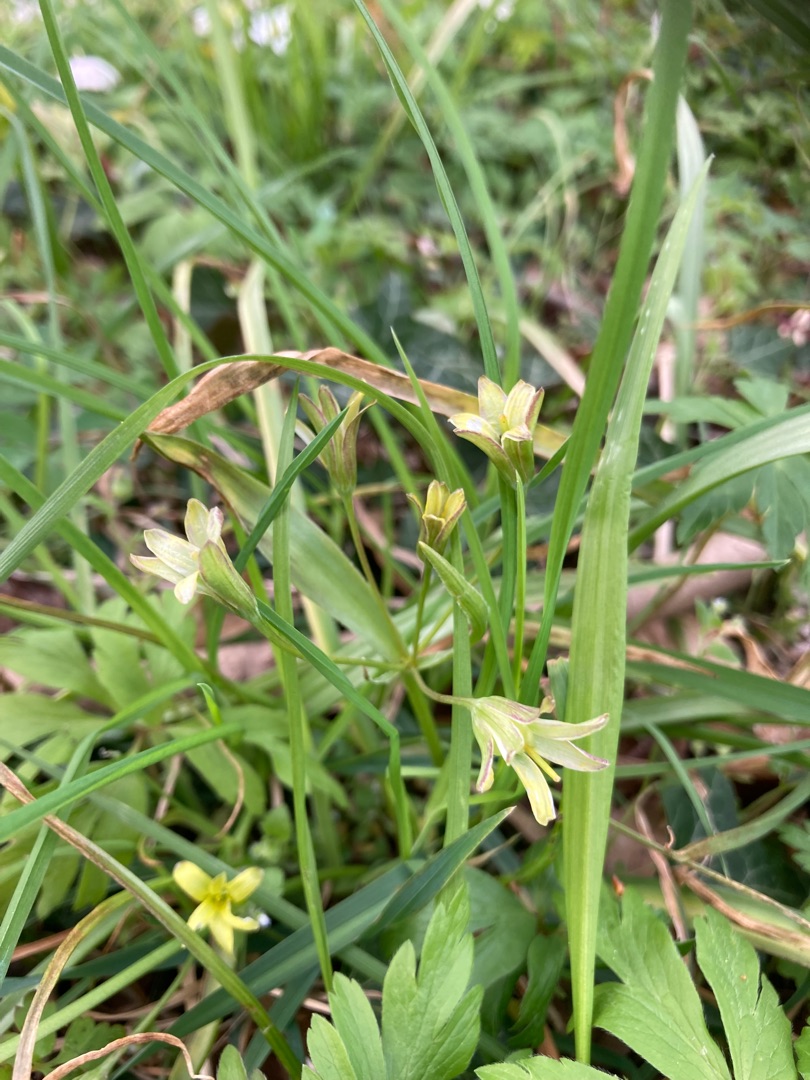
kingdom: Plantae
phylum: Tracheophyta
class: Liliopsida
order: Liliales
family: Liliaceae
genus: Gagea
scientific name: Gagea lutea
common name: Almindelig guldstjerne
